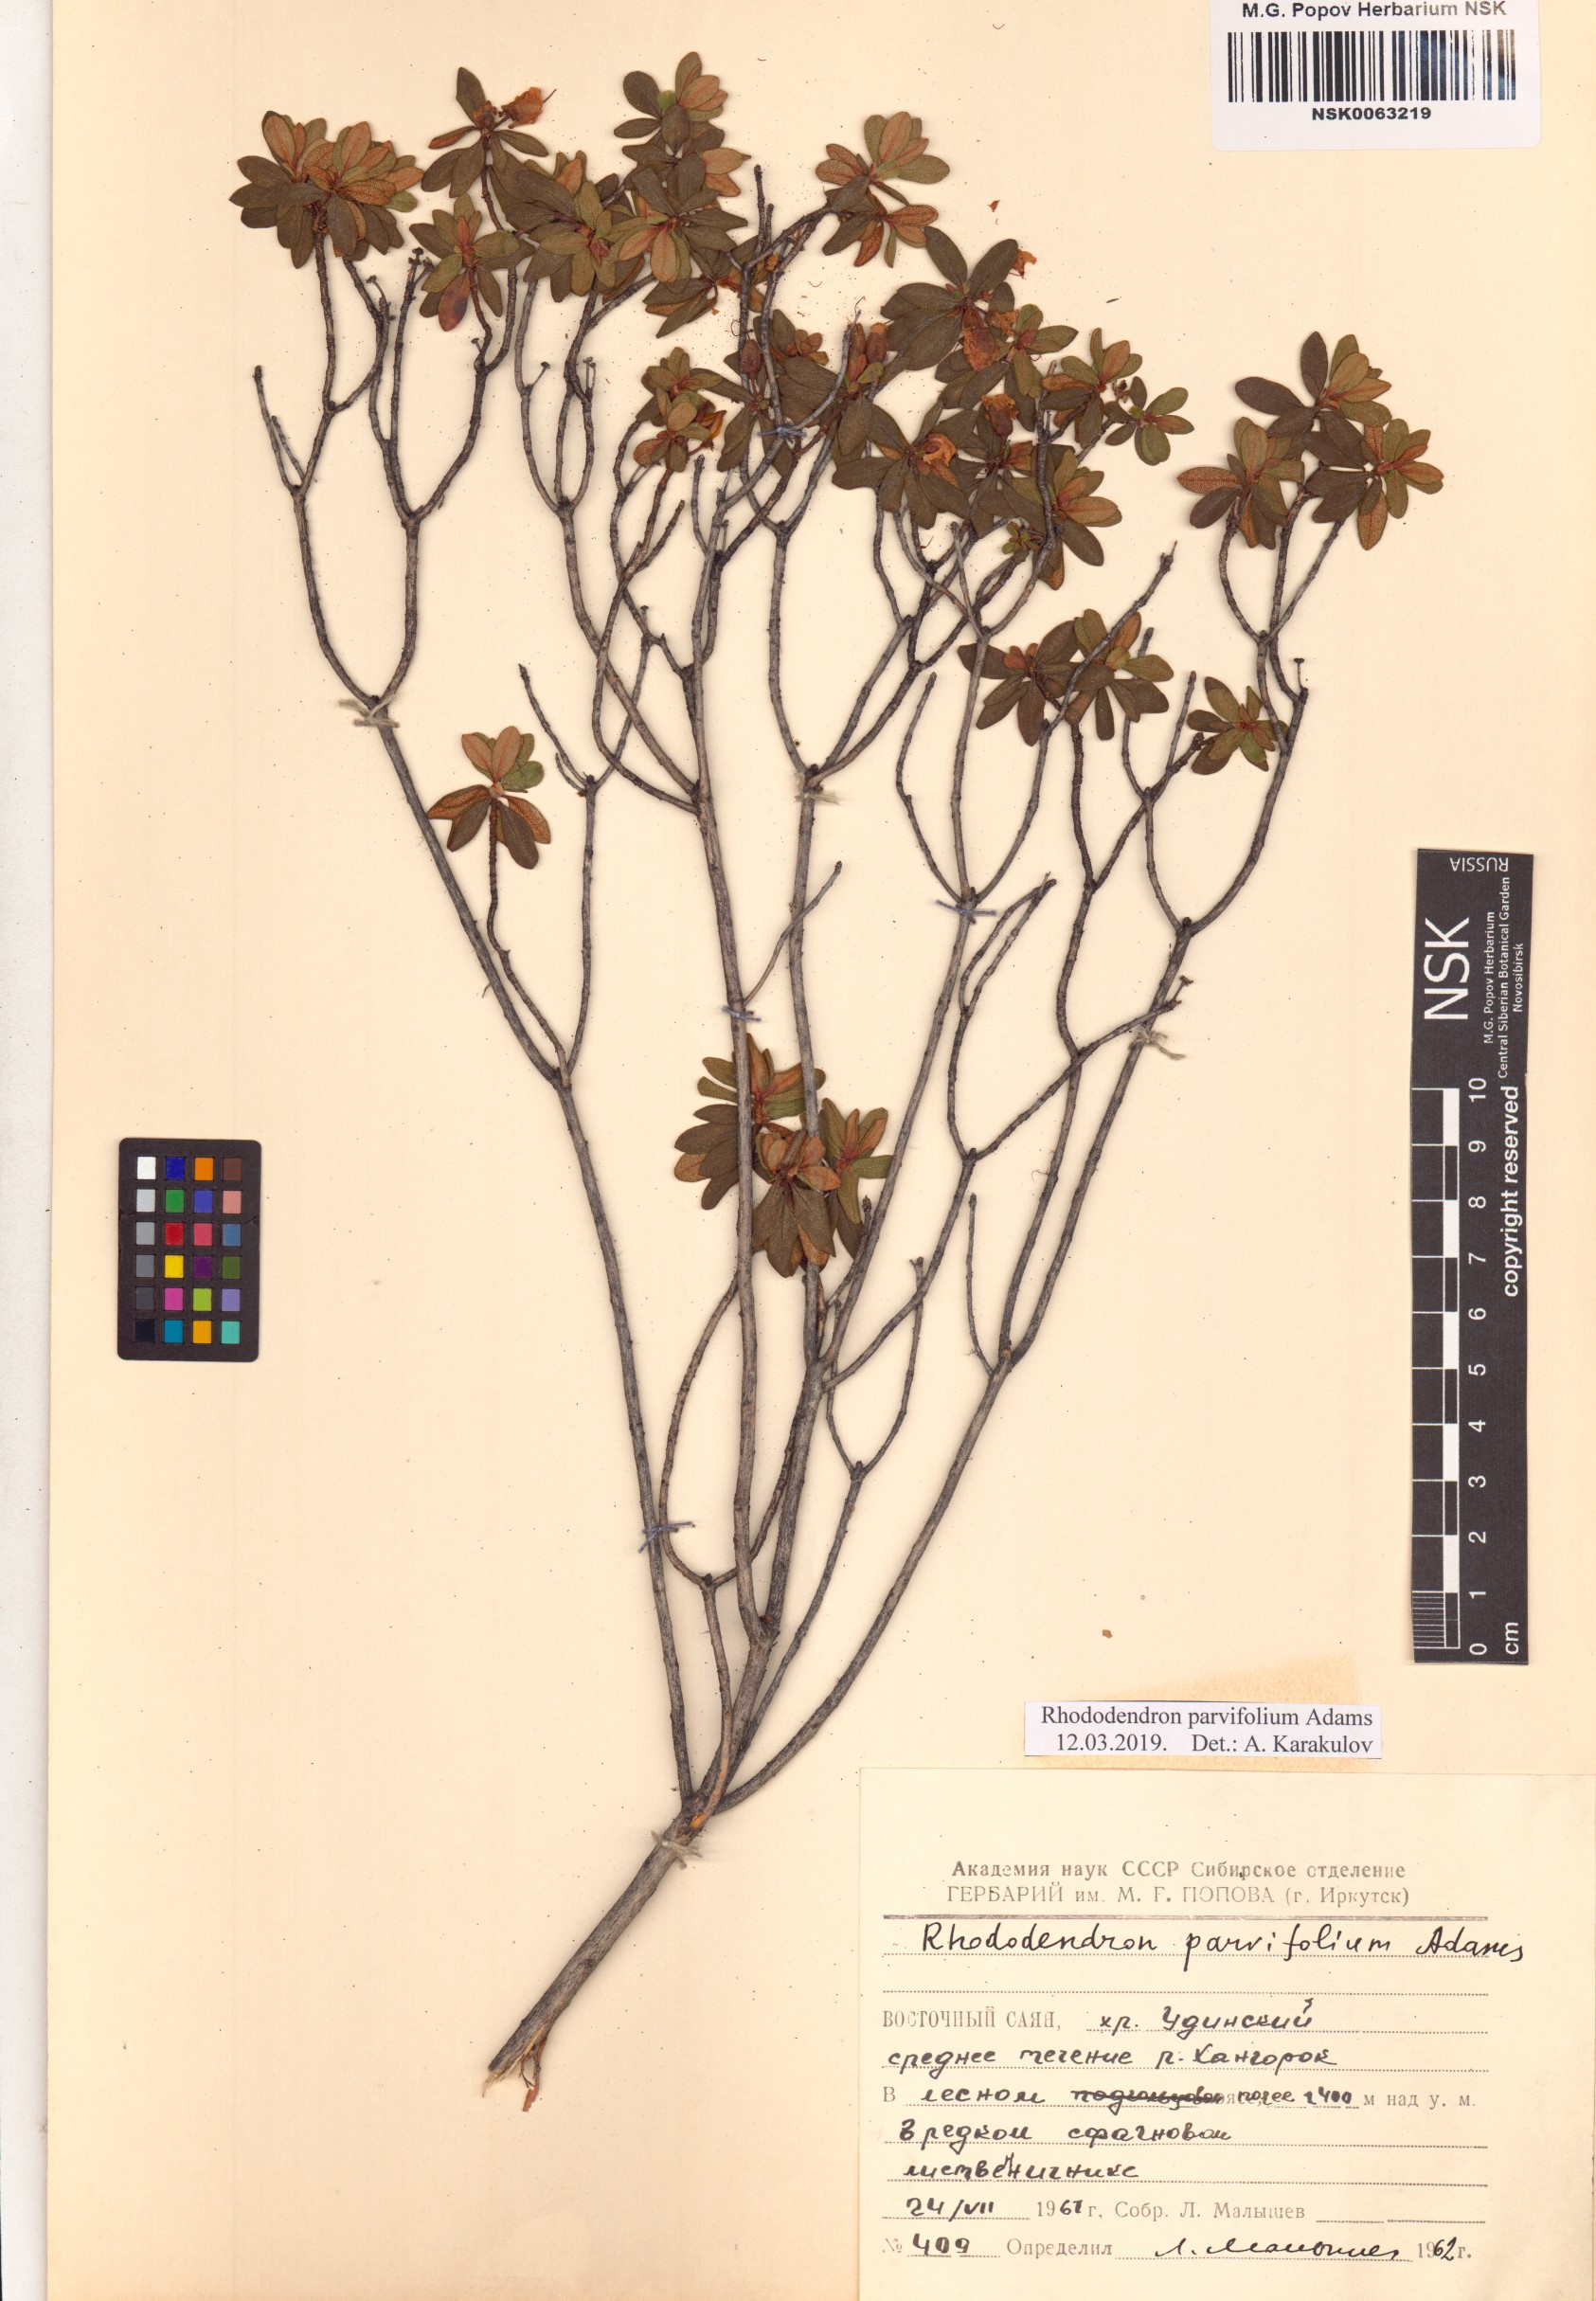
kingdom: Plantae
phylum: Tracheophyta
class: Magnoliopsida
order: Ericales
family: Ericaceae
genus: Rhododendron
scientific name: Rhododendron parvifolium
